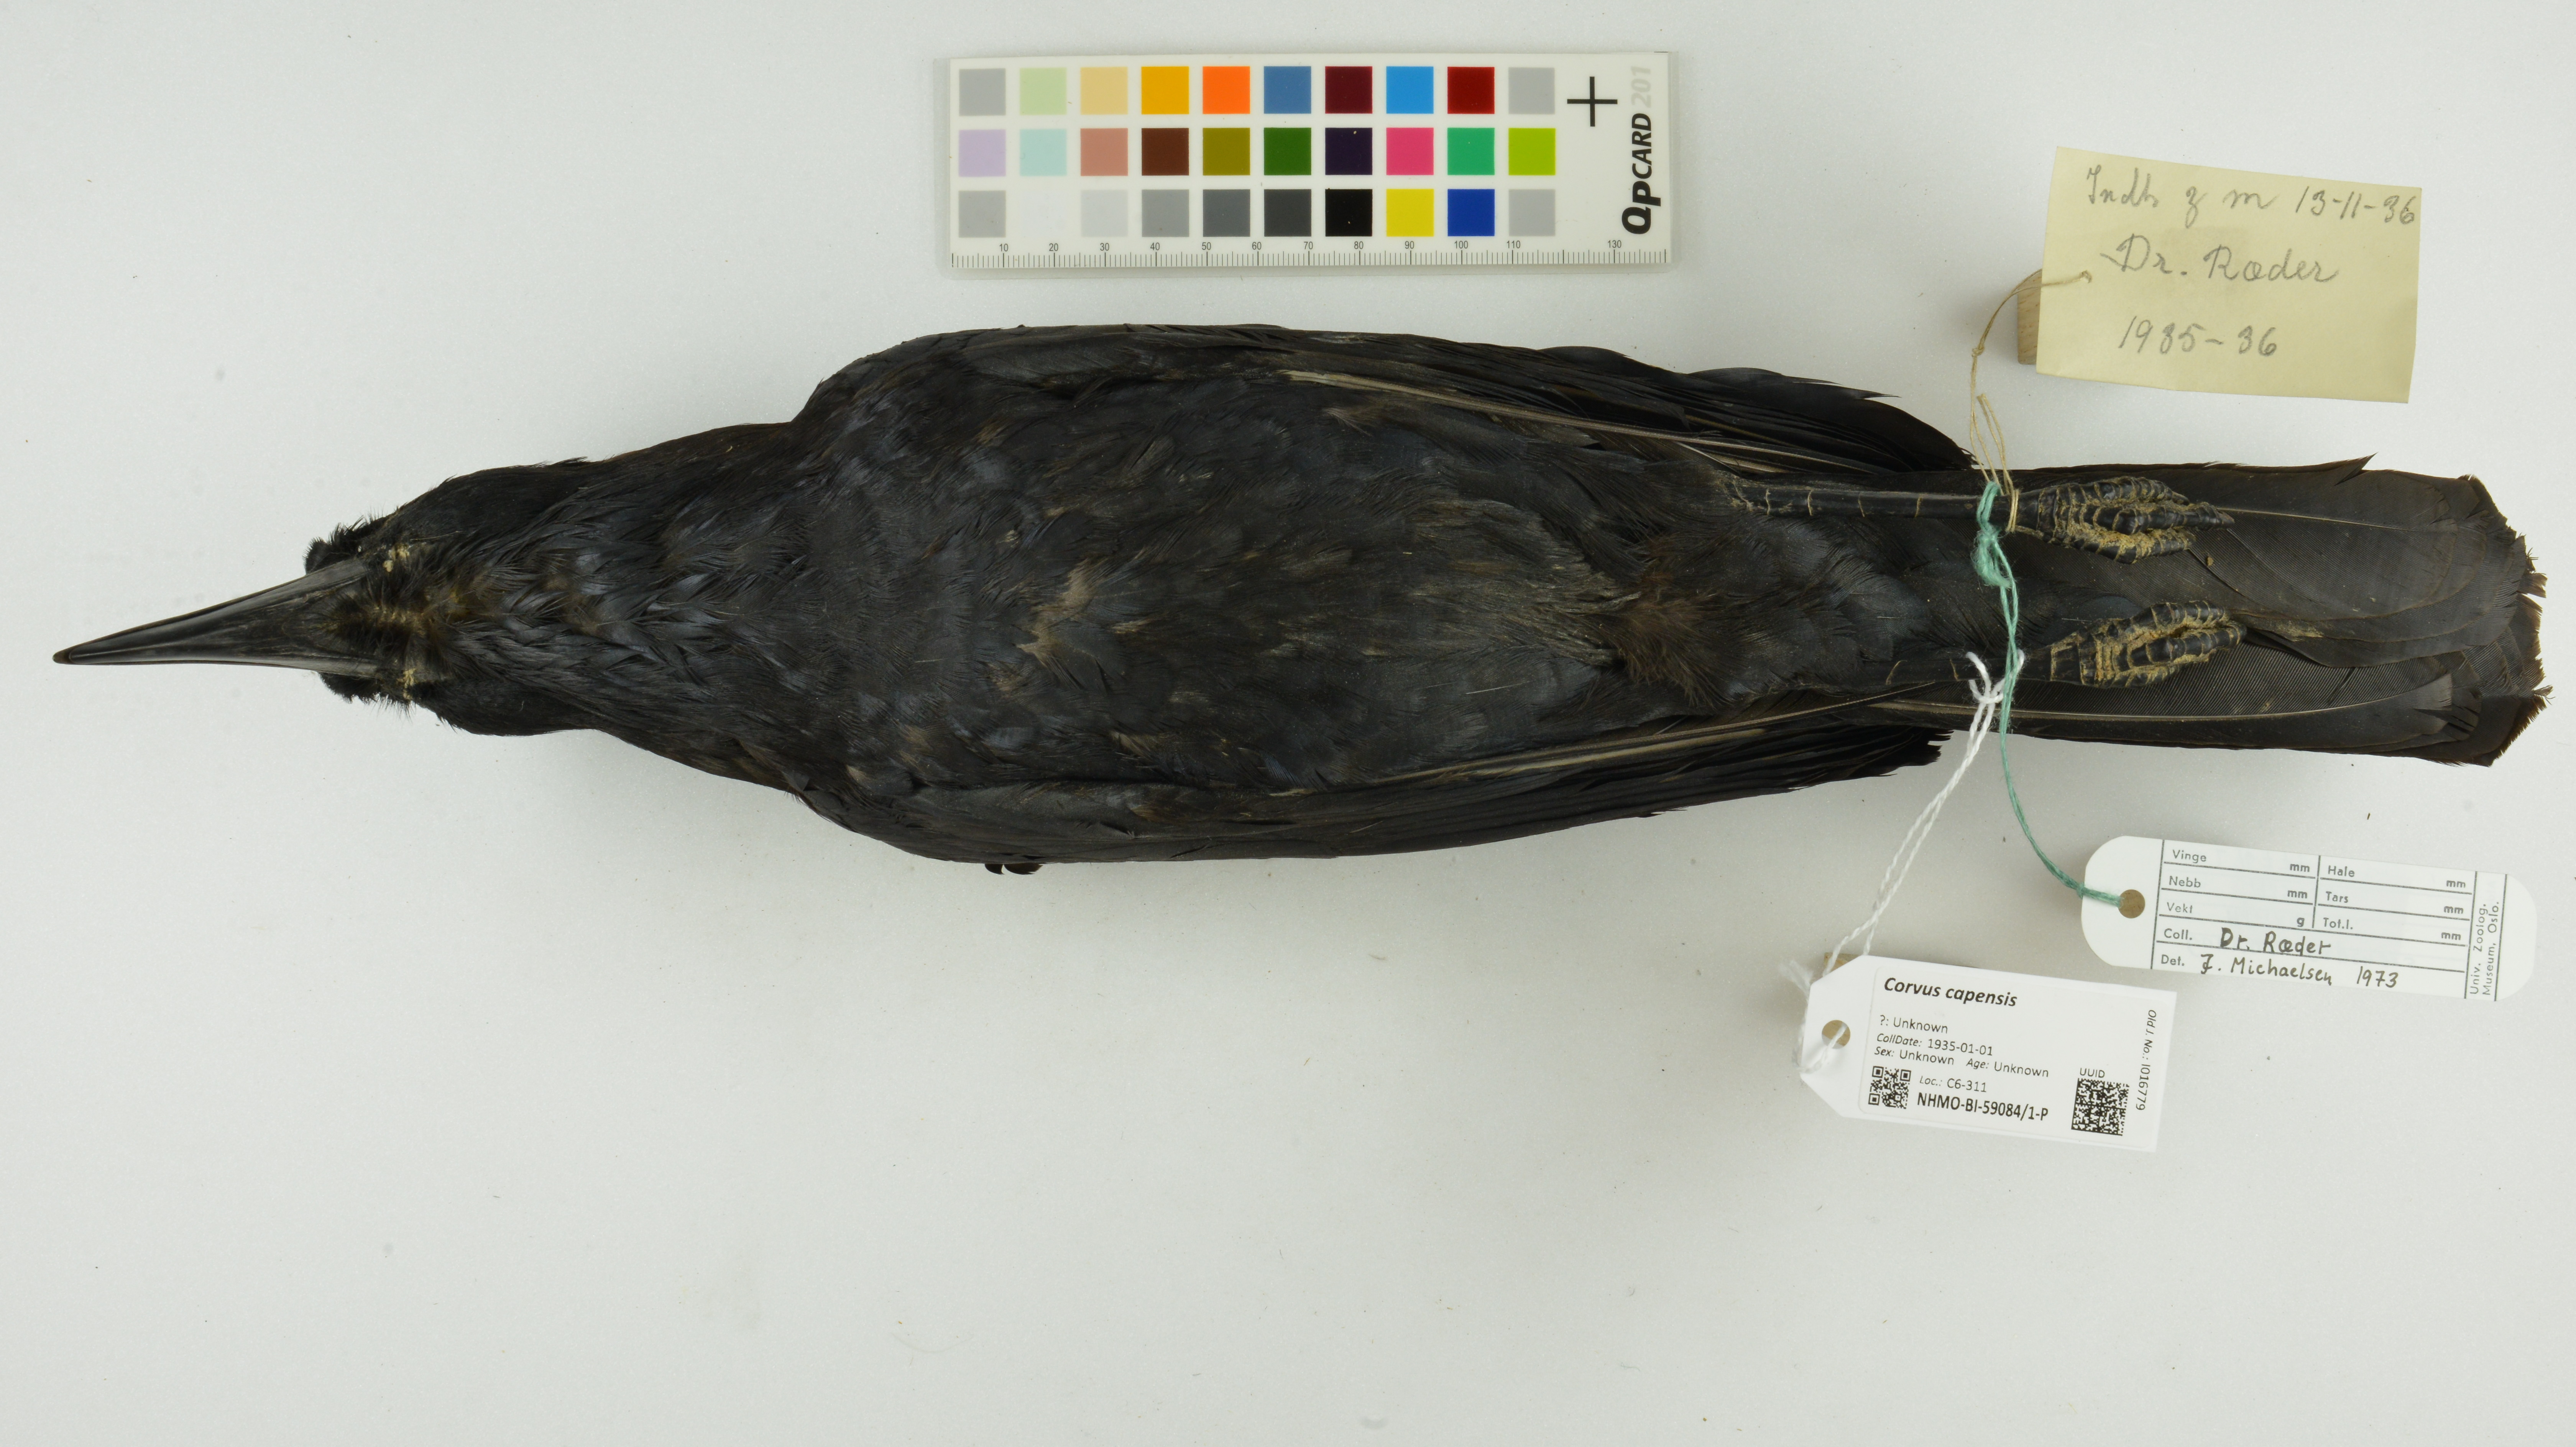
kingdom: Animalia
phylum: Chordata
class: Aves
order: Passeriformes
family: Corvidae
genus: Corvus
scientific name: Corvus capensis
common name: Cape crow
